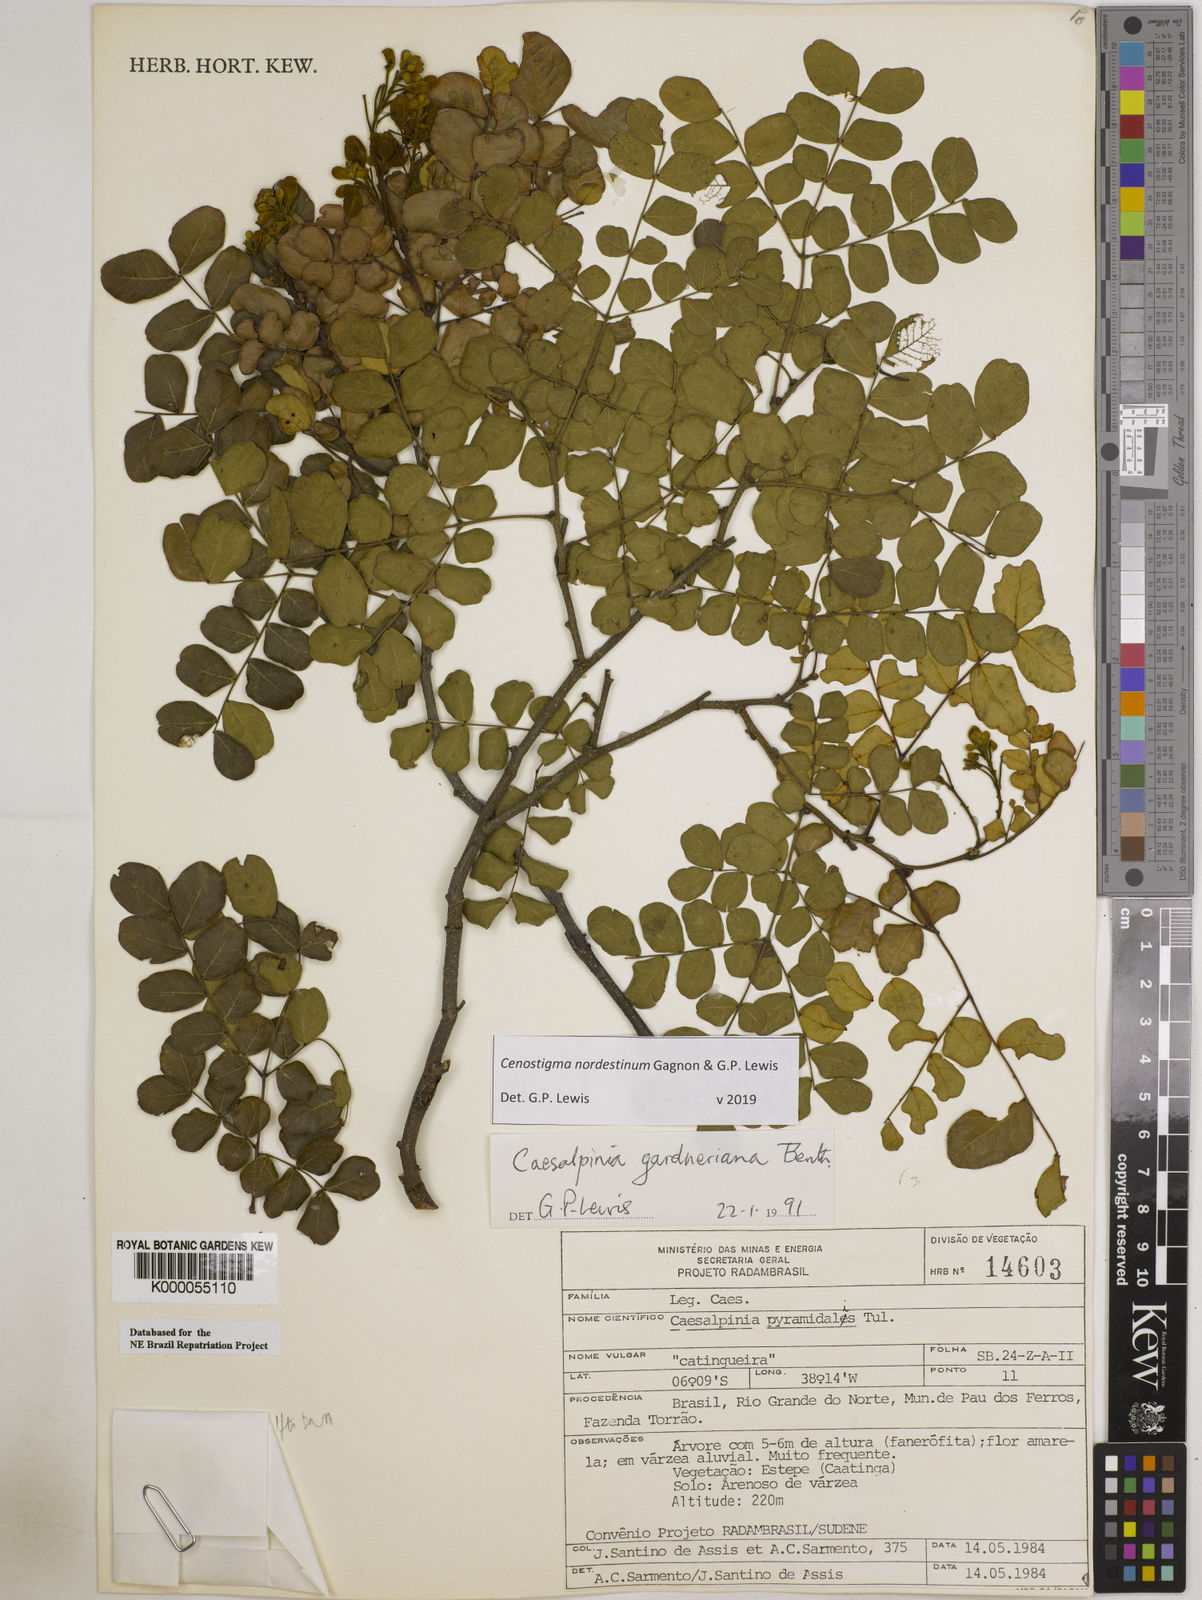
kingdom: Plantae
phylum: Tracheophyta
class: Magnoliopsida
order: Fabales
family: Fabaceae
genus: Cenostigma
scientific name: Cenostigma nordestinum
